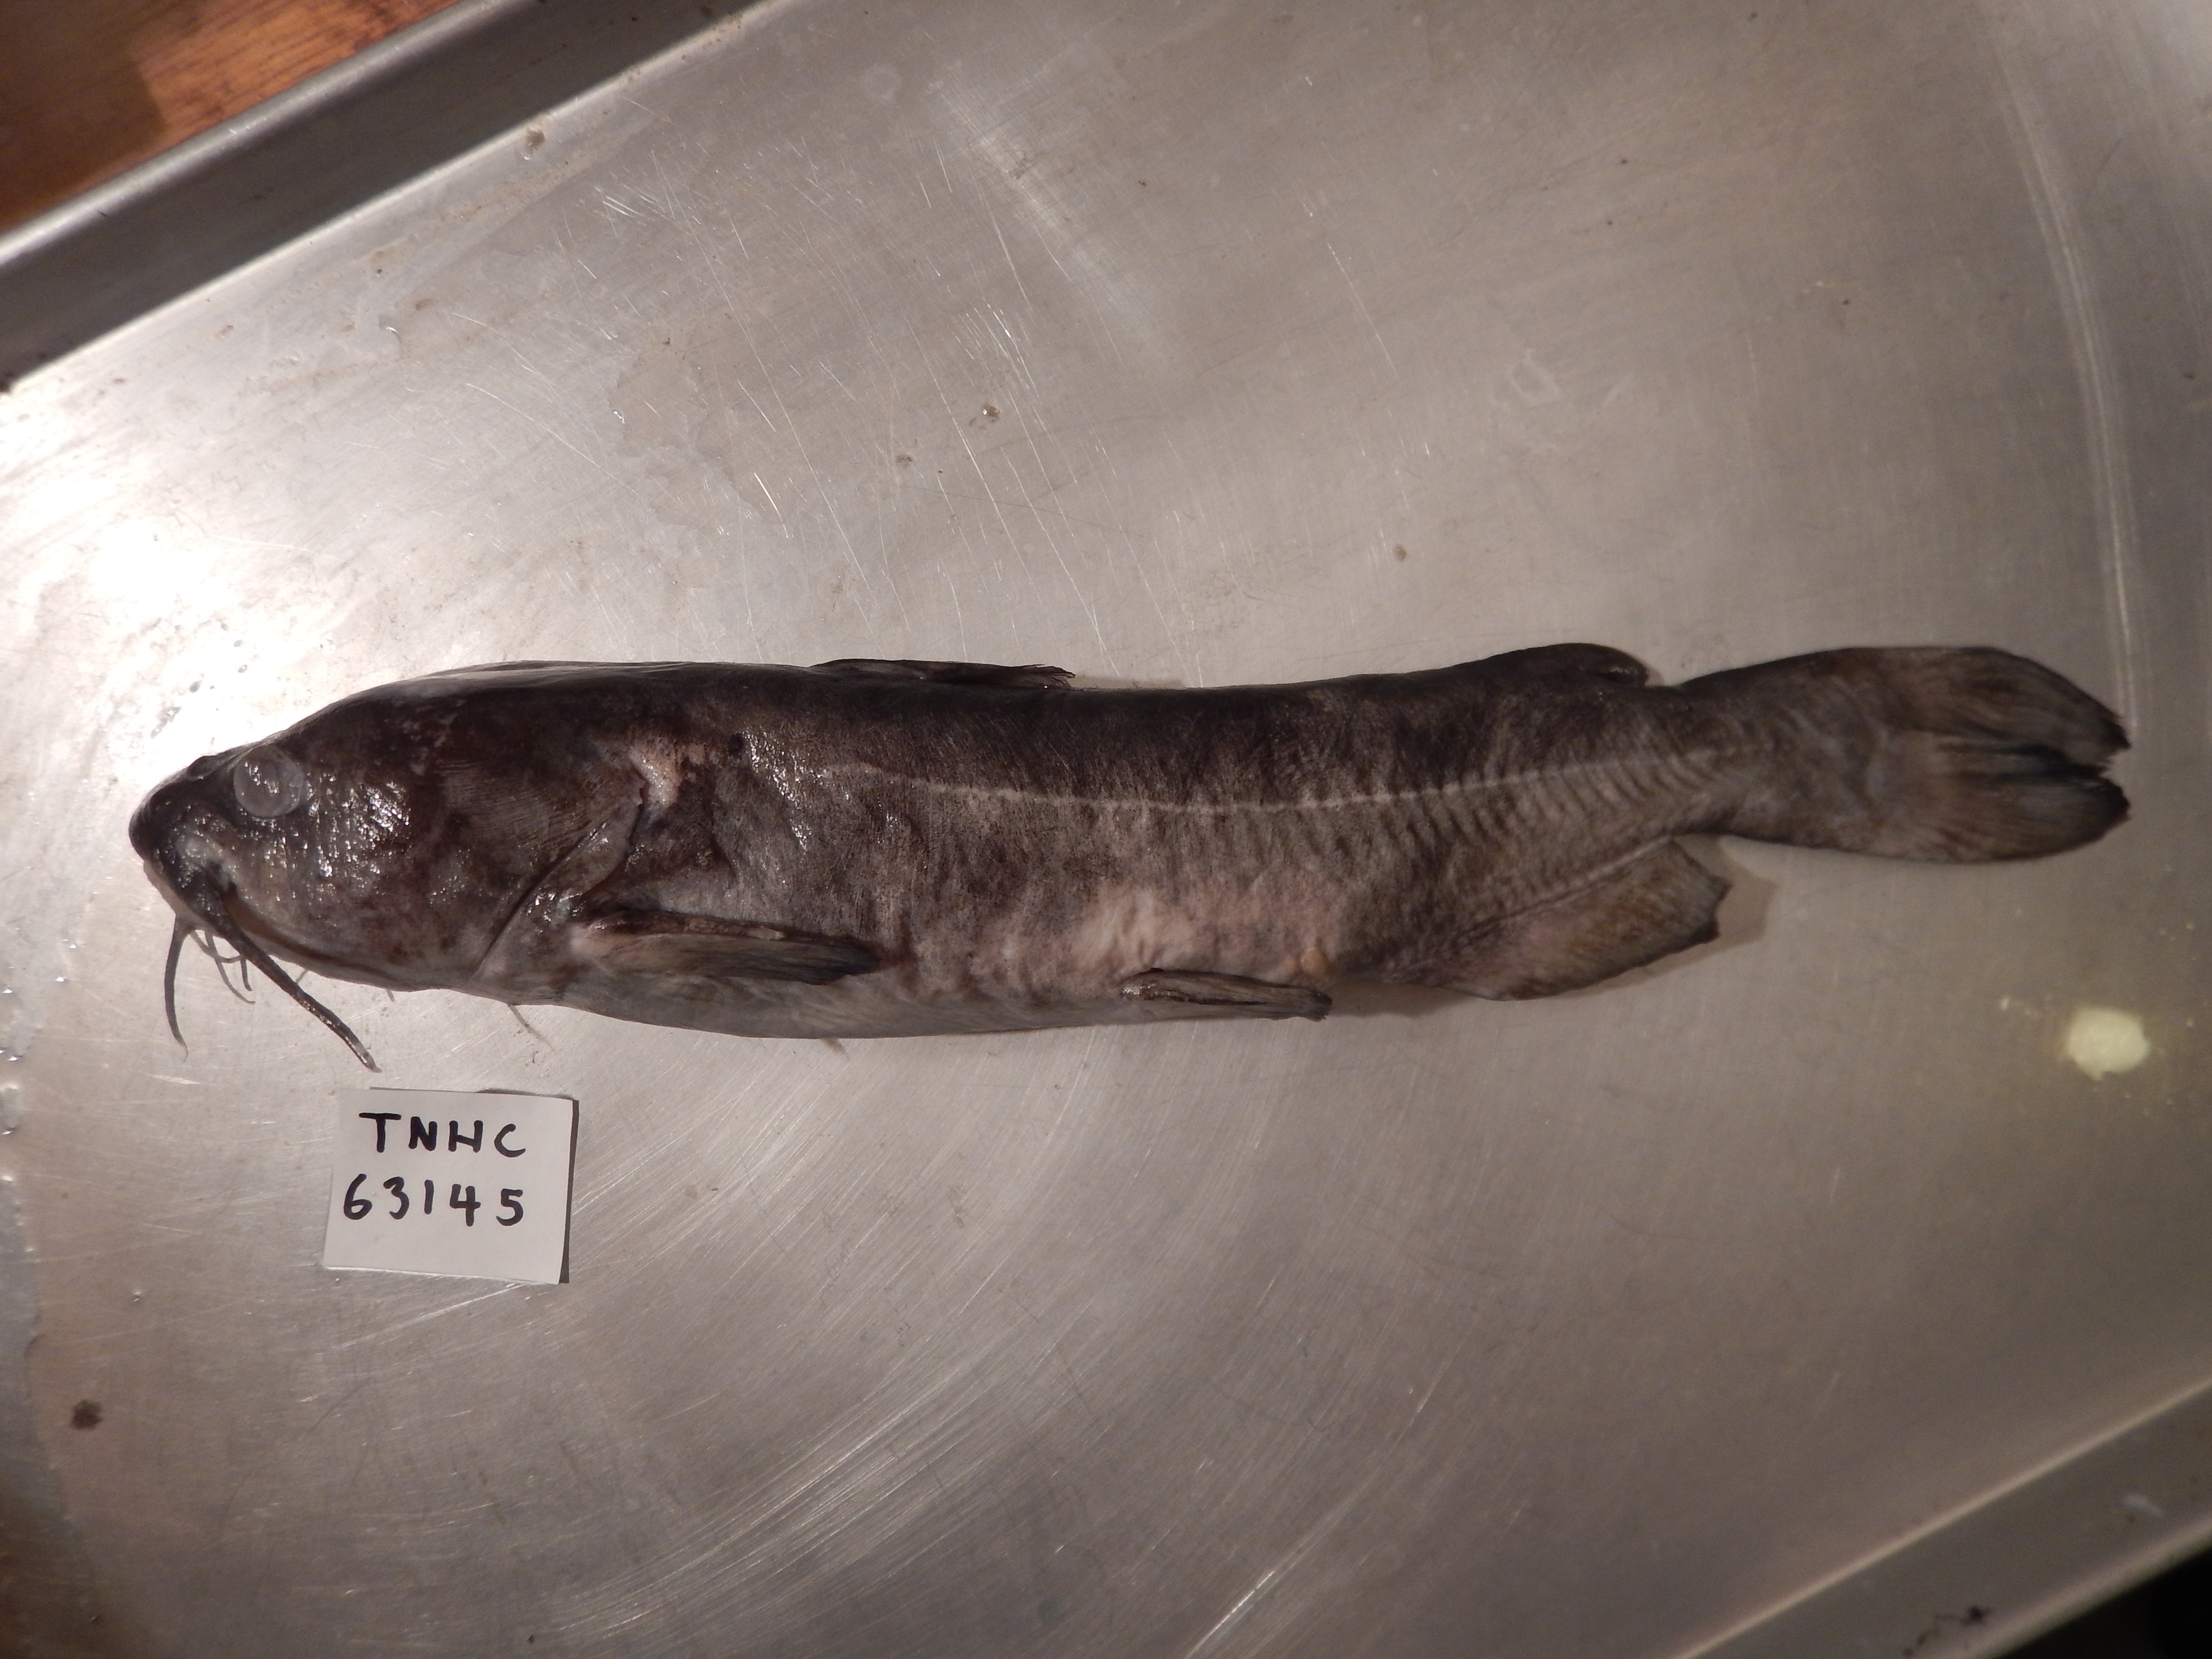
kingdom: Animalia
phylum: Chordata
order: Siluriformes
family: Ictaluridae
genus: Ictalurus
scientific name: Ictalurus pricei
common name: Yaqui catfish
